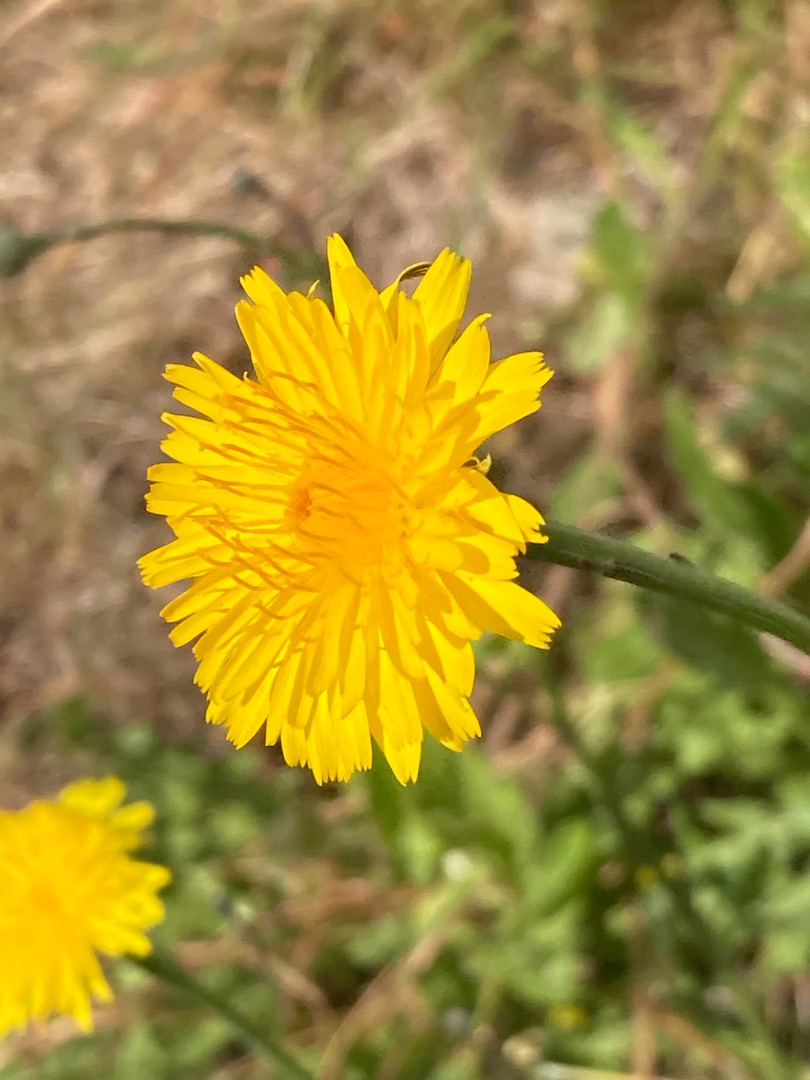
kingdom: Plantae
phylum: Tracheophyta
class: Magnoliopsida
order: Asterales
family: Asteraceae
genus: Hypochaeris
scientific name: Hypochaeris radicata
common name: Almindelig kongepen
